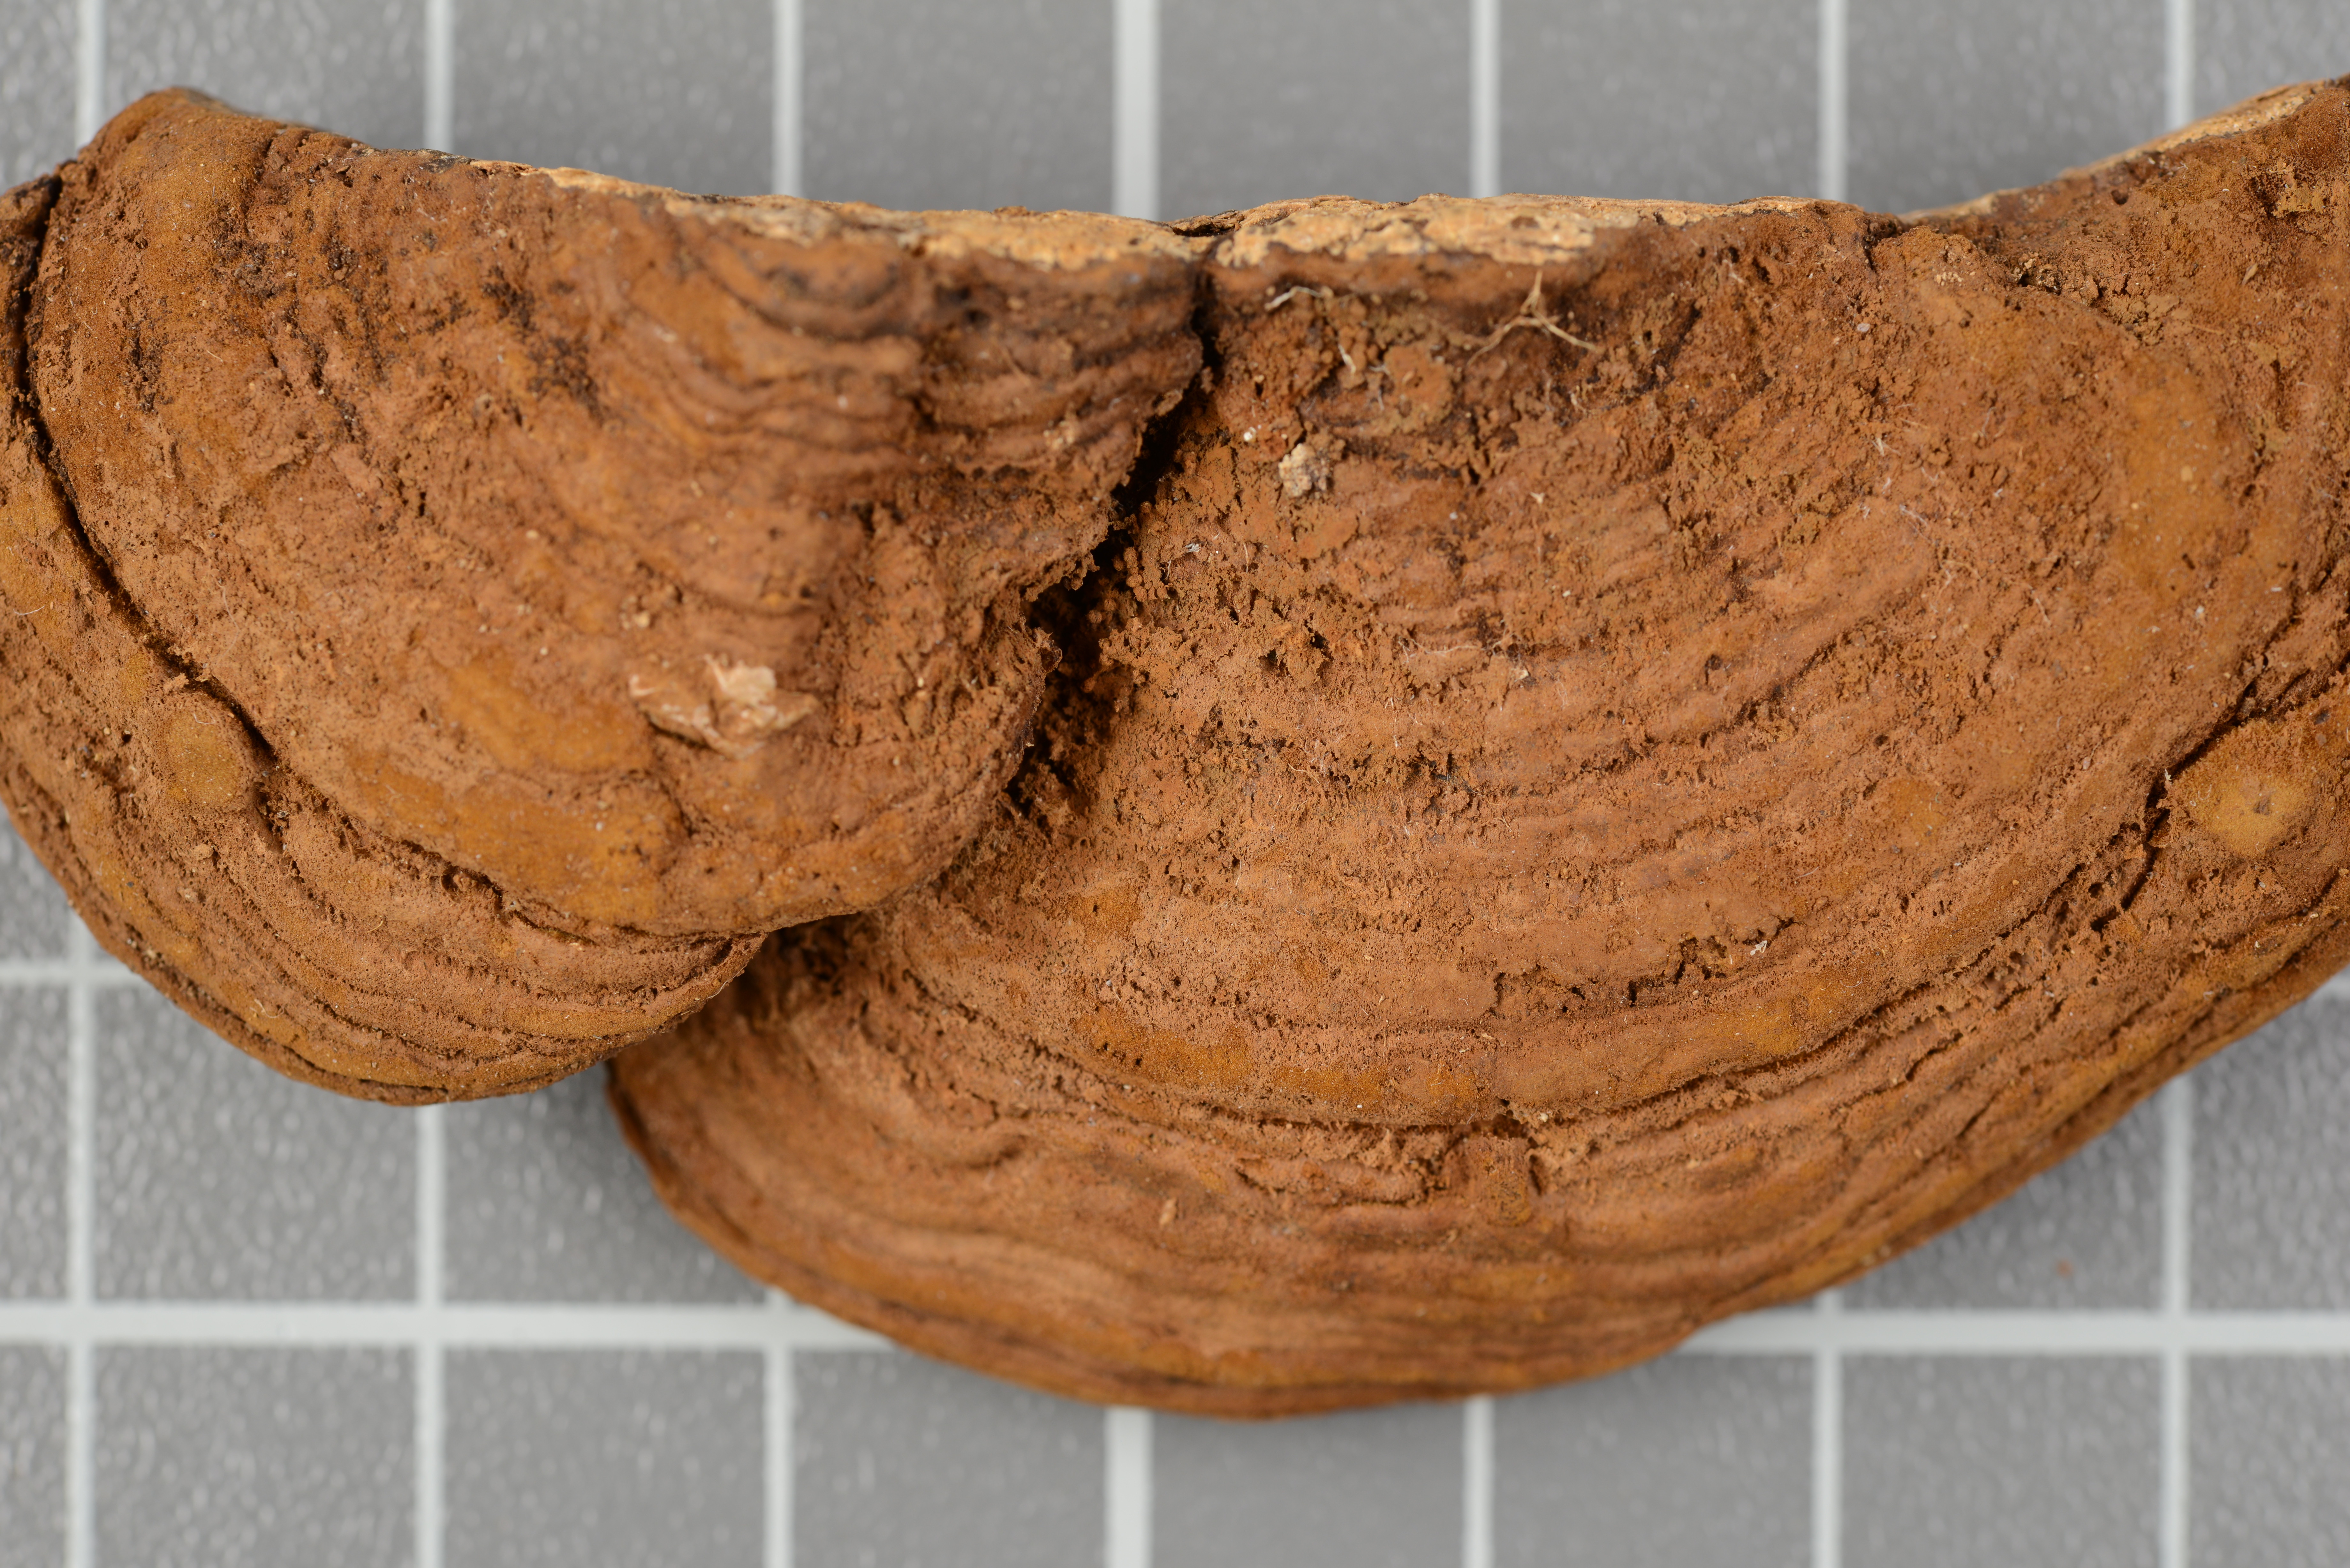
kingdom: Fungi
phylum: Basidiomycota
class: Agaricomycetes
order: Hymenochaetales
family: Hymenochaetaceae
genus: Inonotus
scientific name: Inonotus amazonicus
